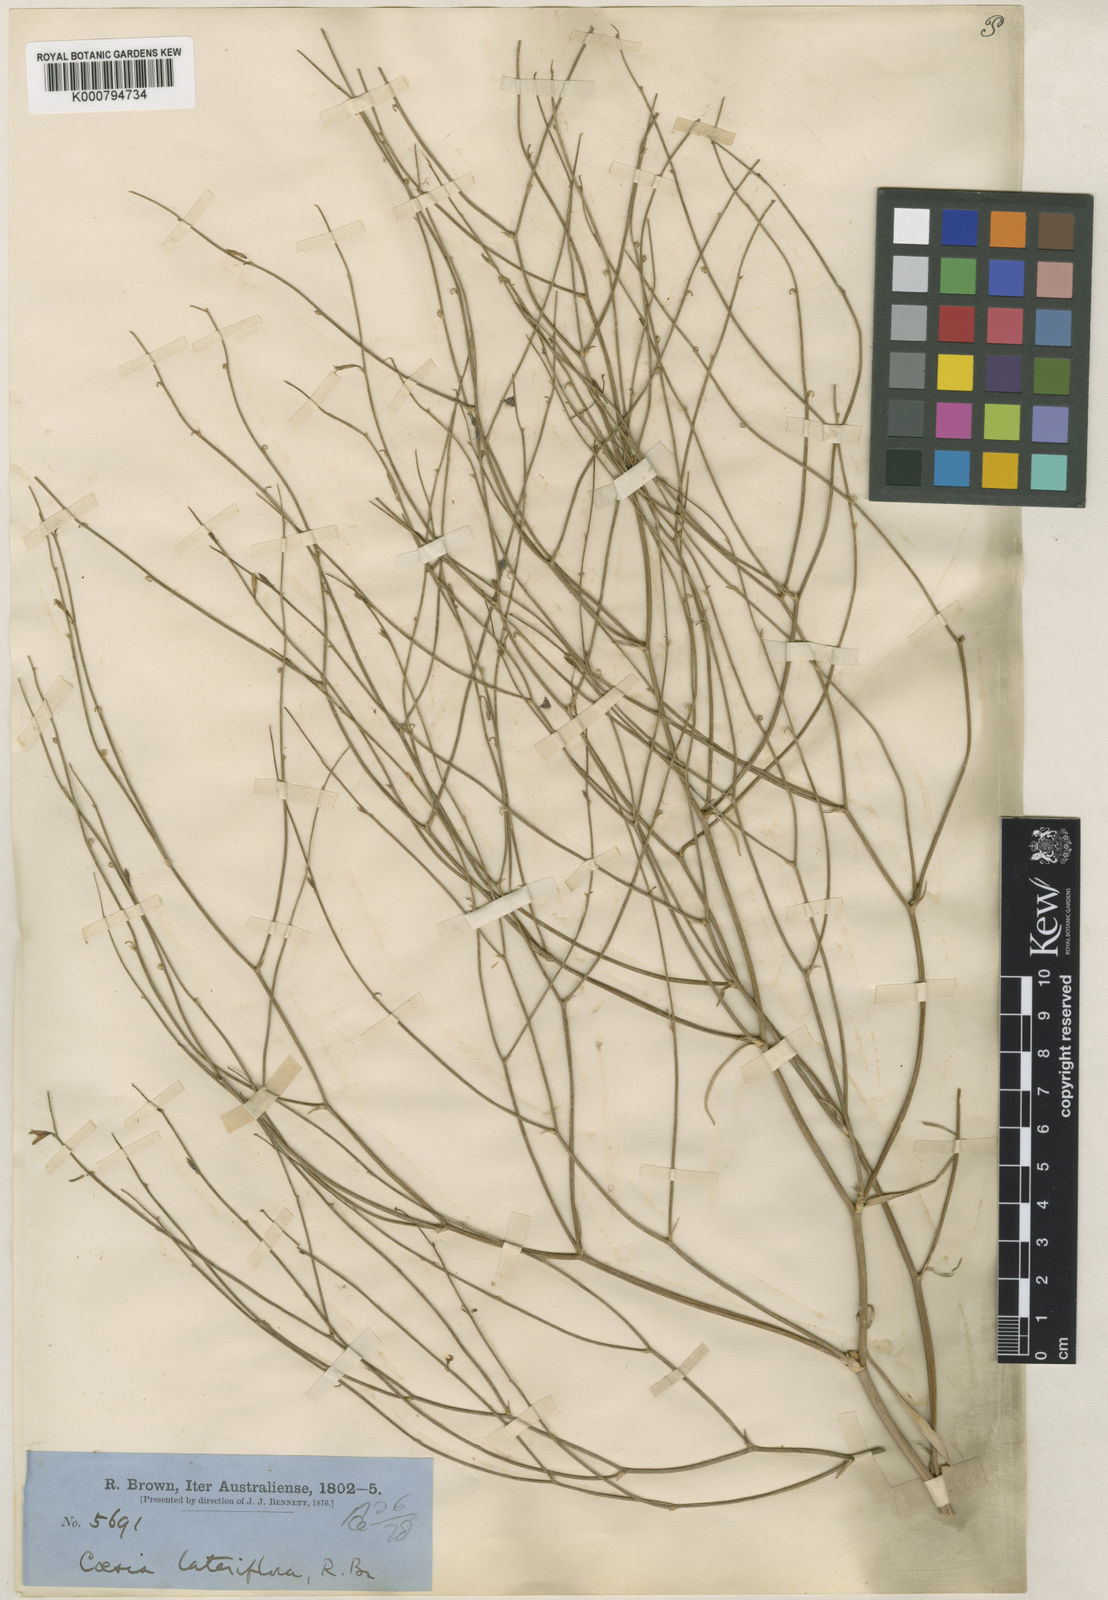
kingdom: Plantae
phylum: Tracheophyta
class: Liliopsida
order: Asparagales
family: Asphodelaceae
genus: Corynotheca
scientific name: Corynotheca lateriflora
